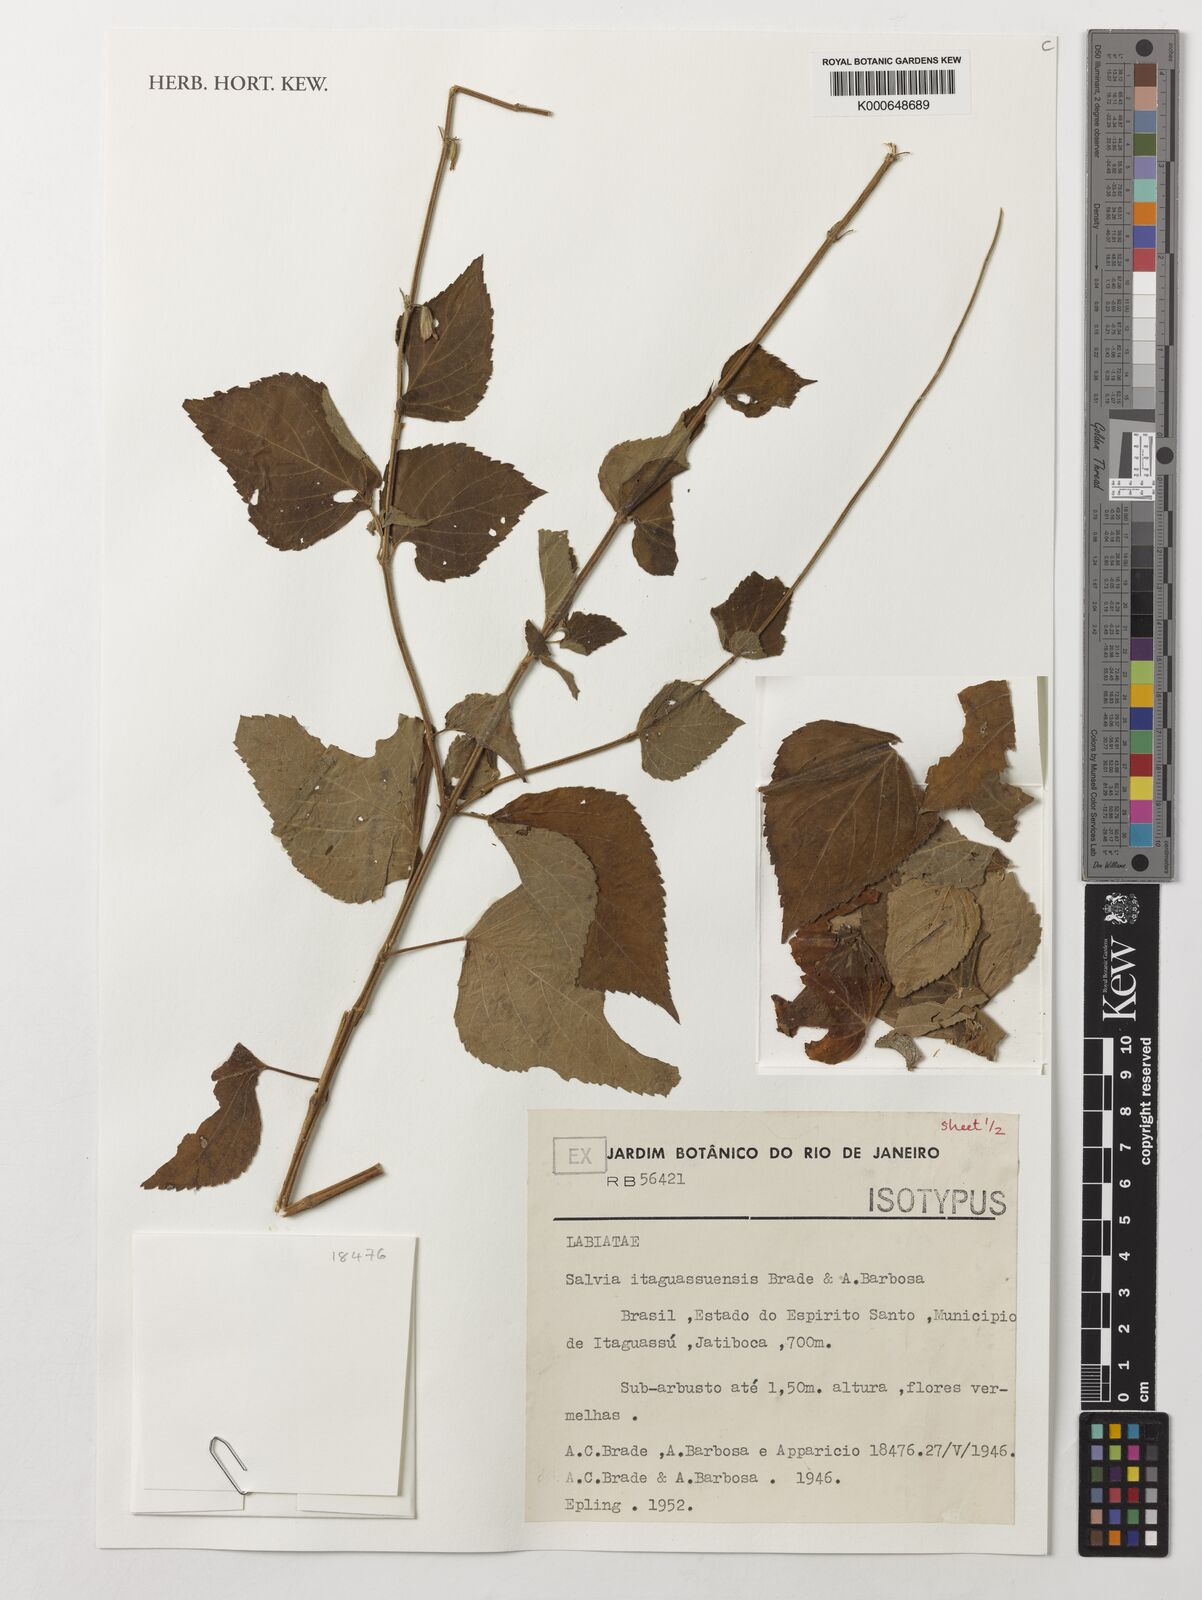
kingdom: Plantae
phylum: Tracheophyta
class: Magnoliopsida
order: Lamiales
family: Lamiaceae
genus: Salvia
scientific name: Salvia itaguassuensis
